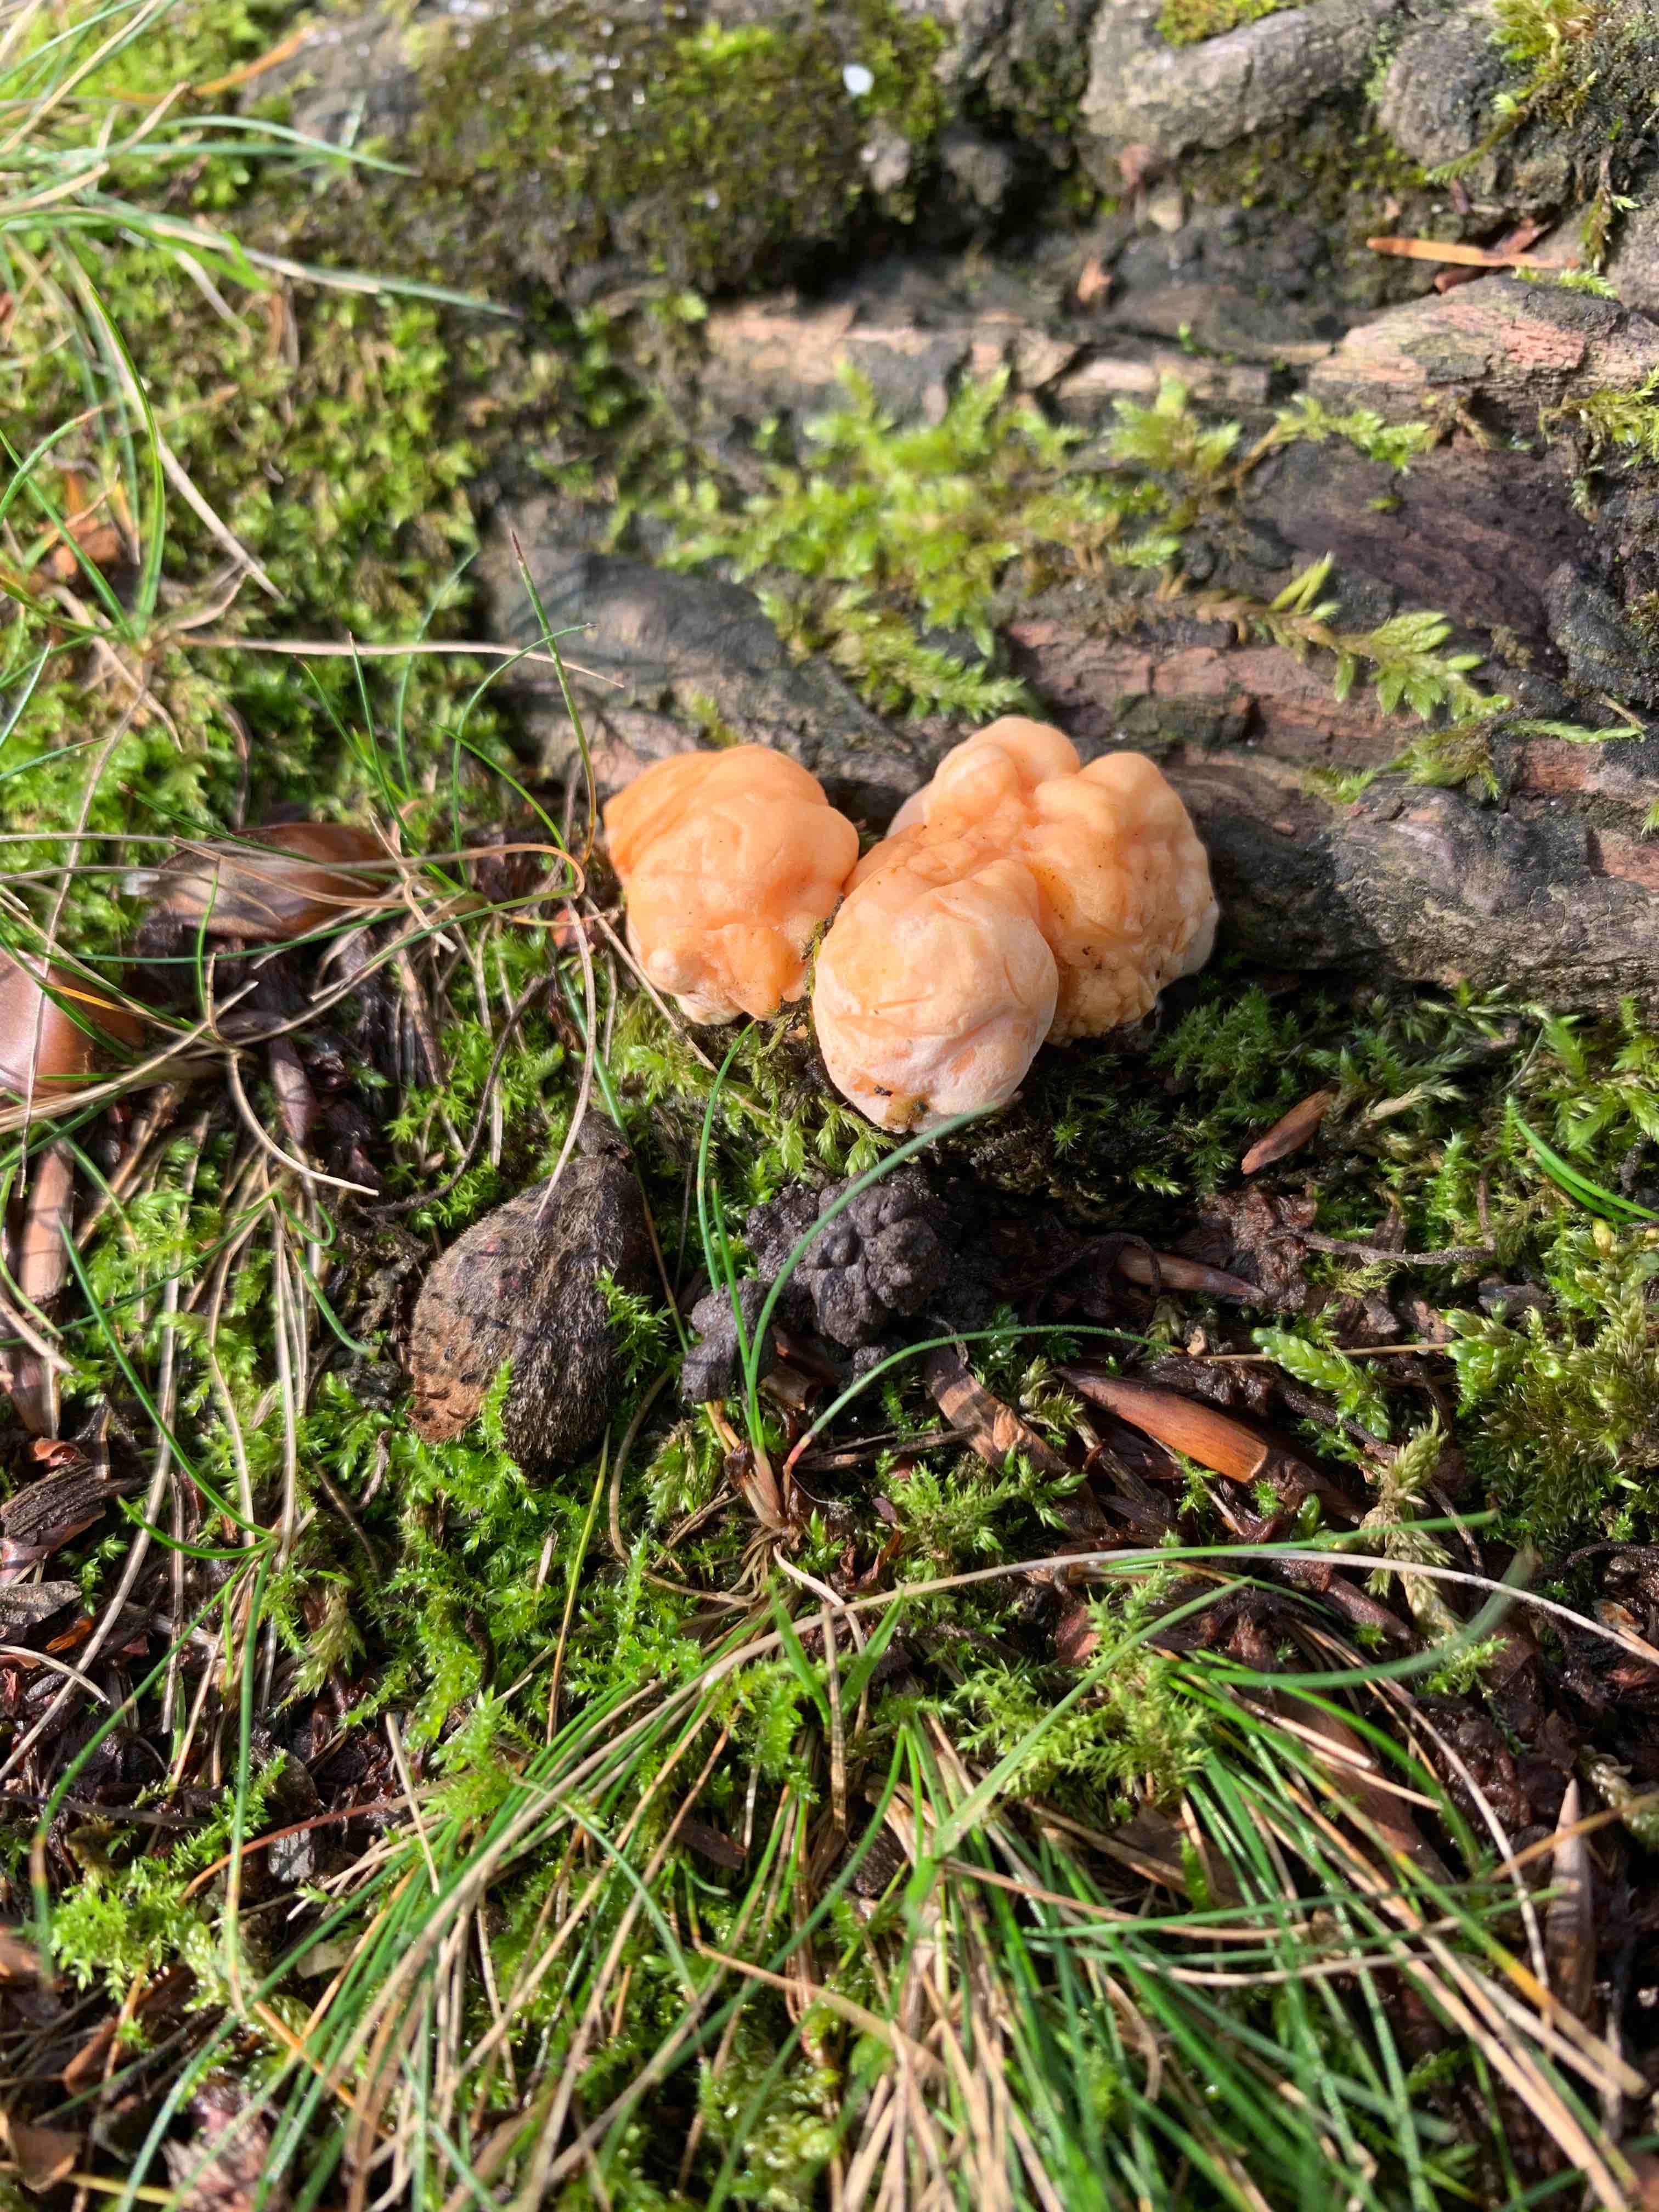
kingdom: Fungi
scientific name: Fungi
